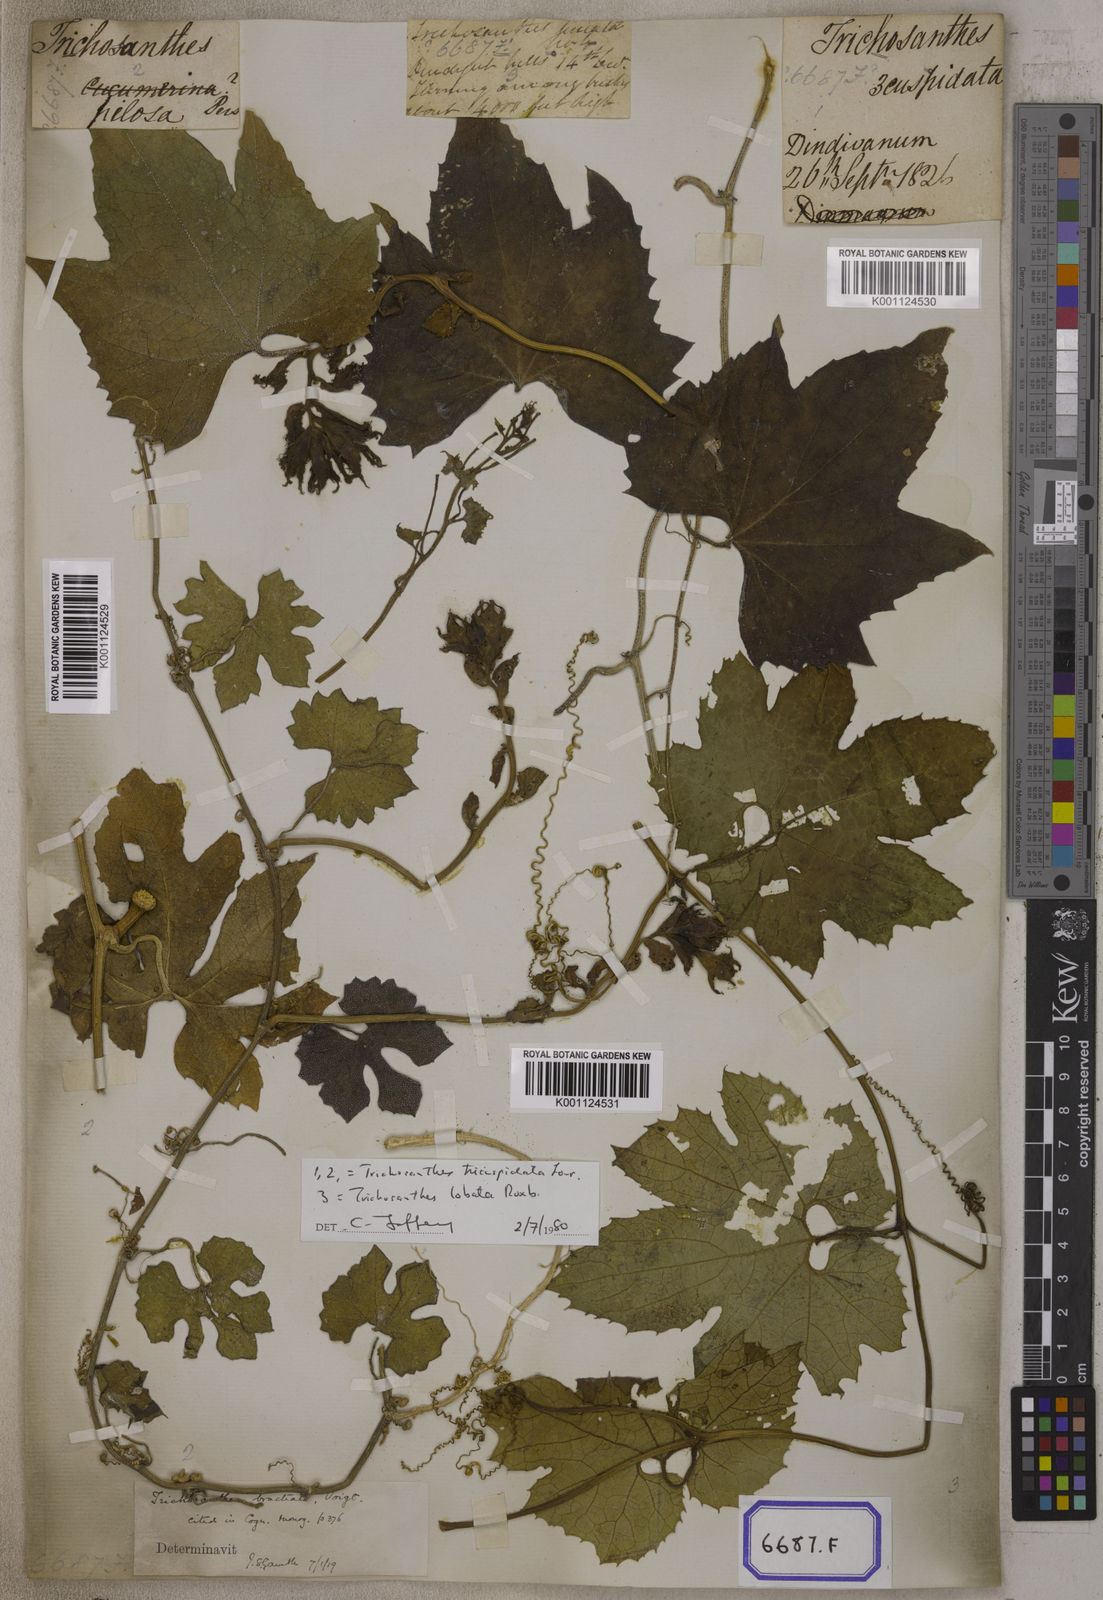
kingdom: Plantae
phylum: Tracheophyta
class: Magnoliopsida
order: Cucurbitales
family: Cucurbitaceae
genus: Trichosanthes
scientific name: Trichosanthes cucumerina
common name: Snakegourd
